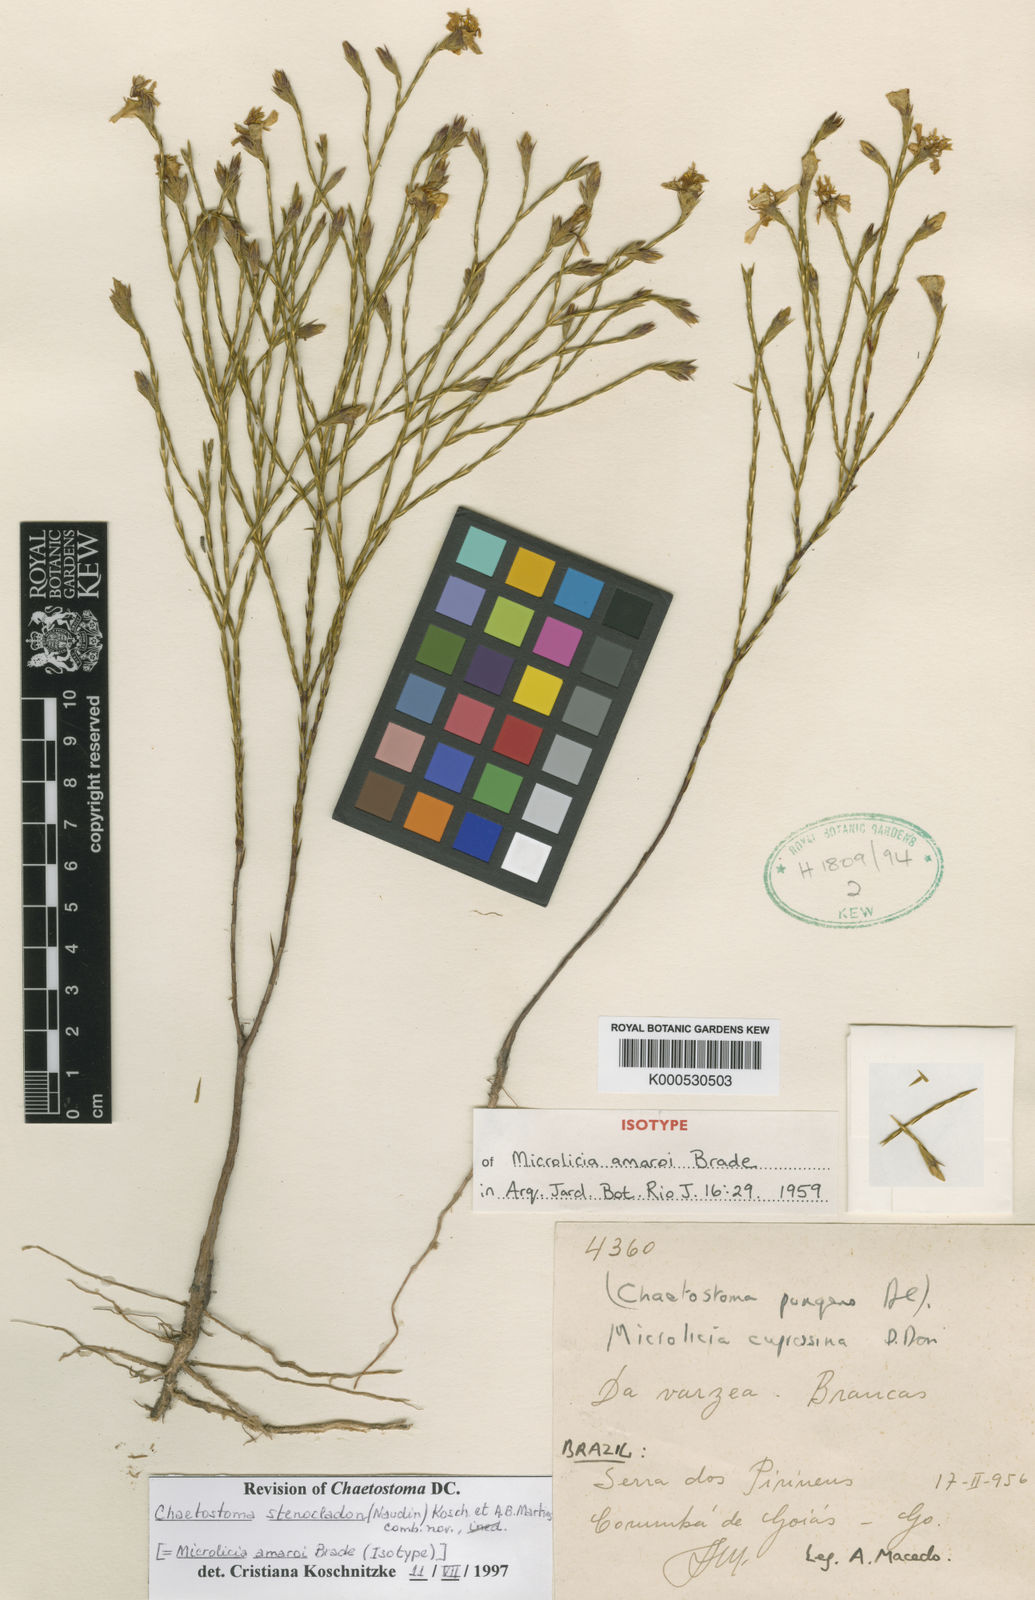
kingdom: Plantae
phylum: Tracheophyta
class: Magnoliopsida
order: Myrtales
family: Melastomataceae
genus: Microlicia
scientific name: Microlicia stenocladon
